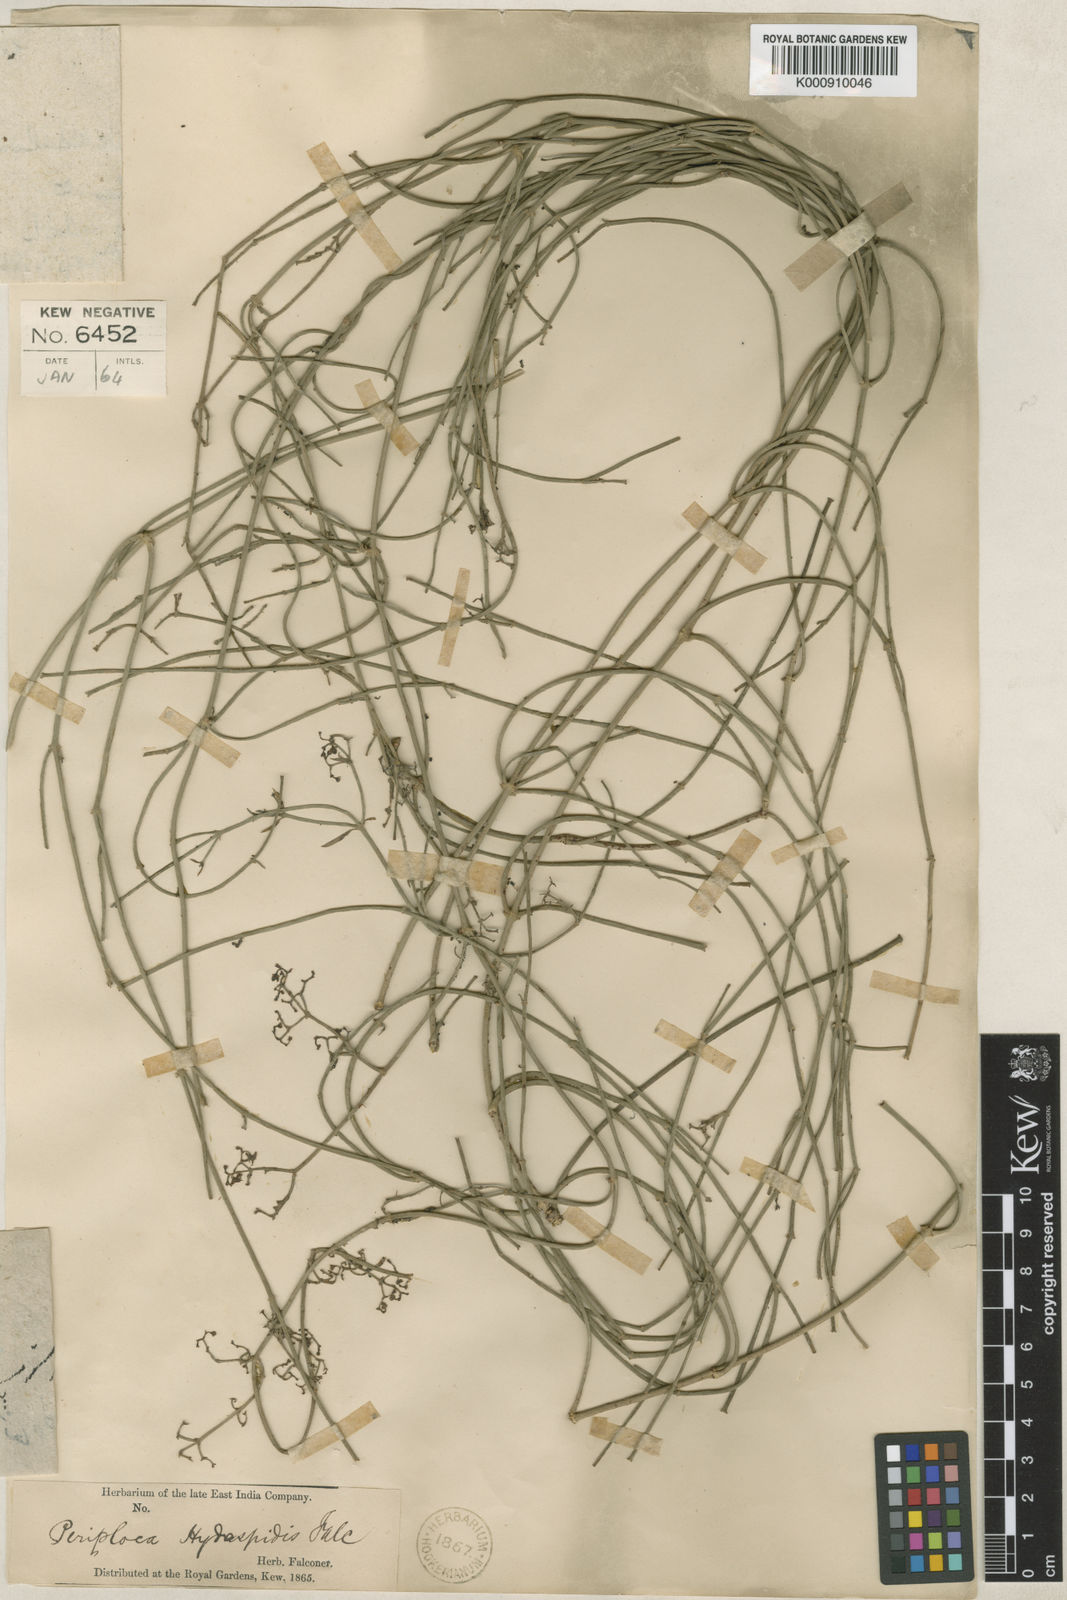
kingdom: Plantae
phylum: Tracheophyta
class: Magnoliopsida
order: Gentianales
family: Apocynaceae
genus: Periploca
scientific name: Periploca hydaspidis
